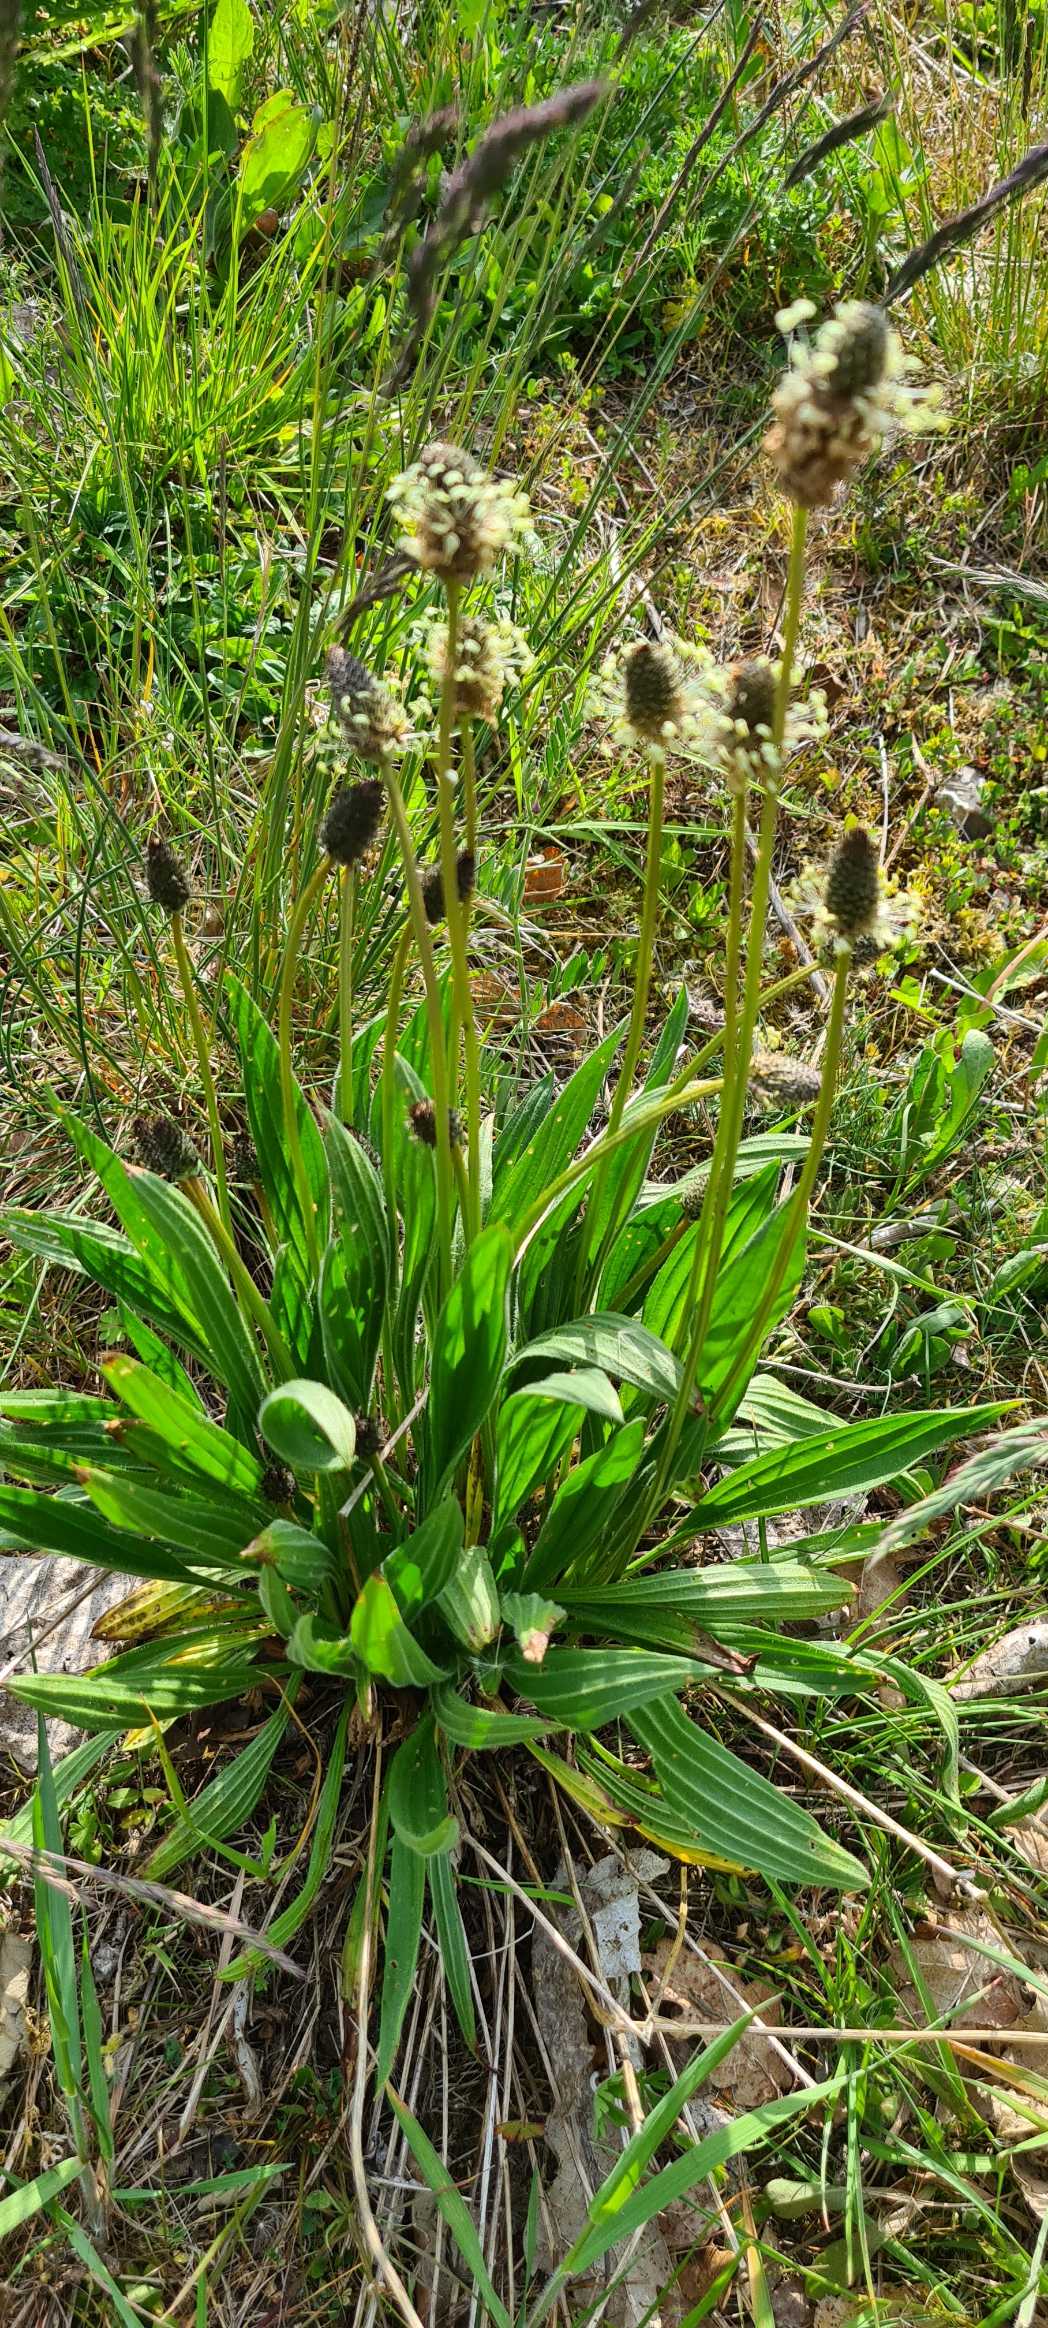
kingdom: Plantae
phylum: Tracheophyta
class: Magnoliopsida
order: Lamiales
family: Plantaginaceae
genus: Plantago
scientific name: Plantago lanceolata
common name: Lancet-vejbred
